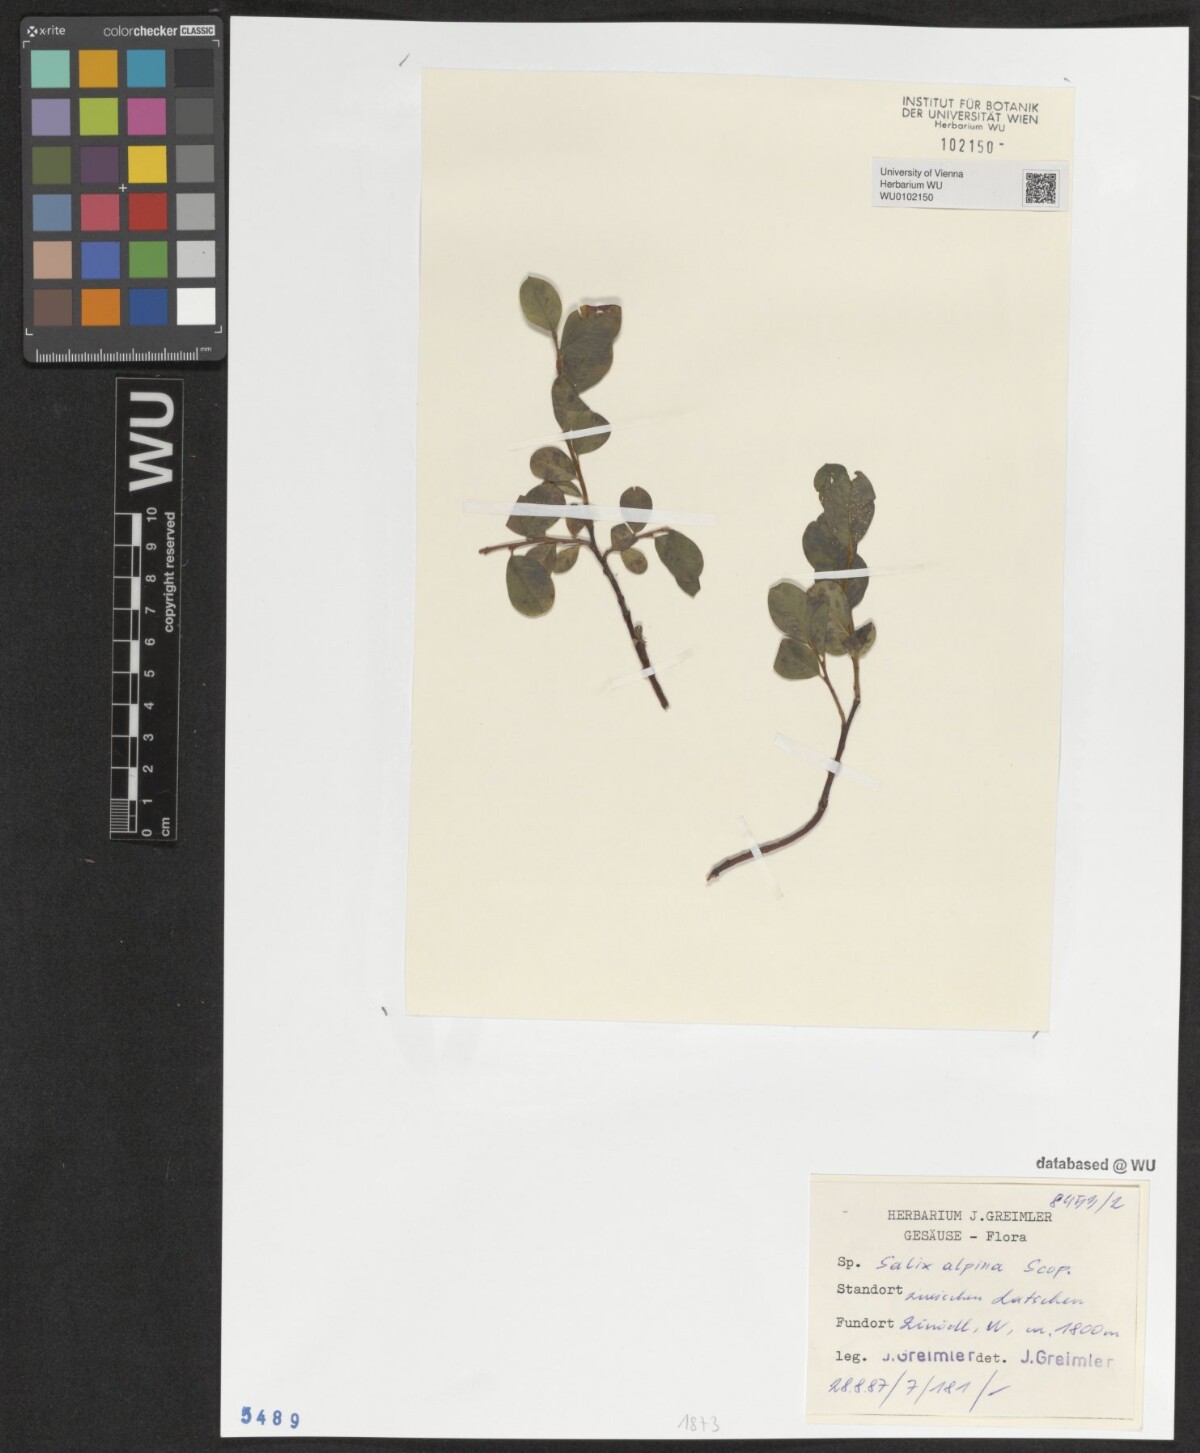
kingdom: Plantae
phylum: Tracheophyta
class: Magnoliopsida
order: Malpighiales
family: Salicaceae
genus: Salix
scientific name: Salix alpina
